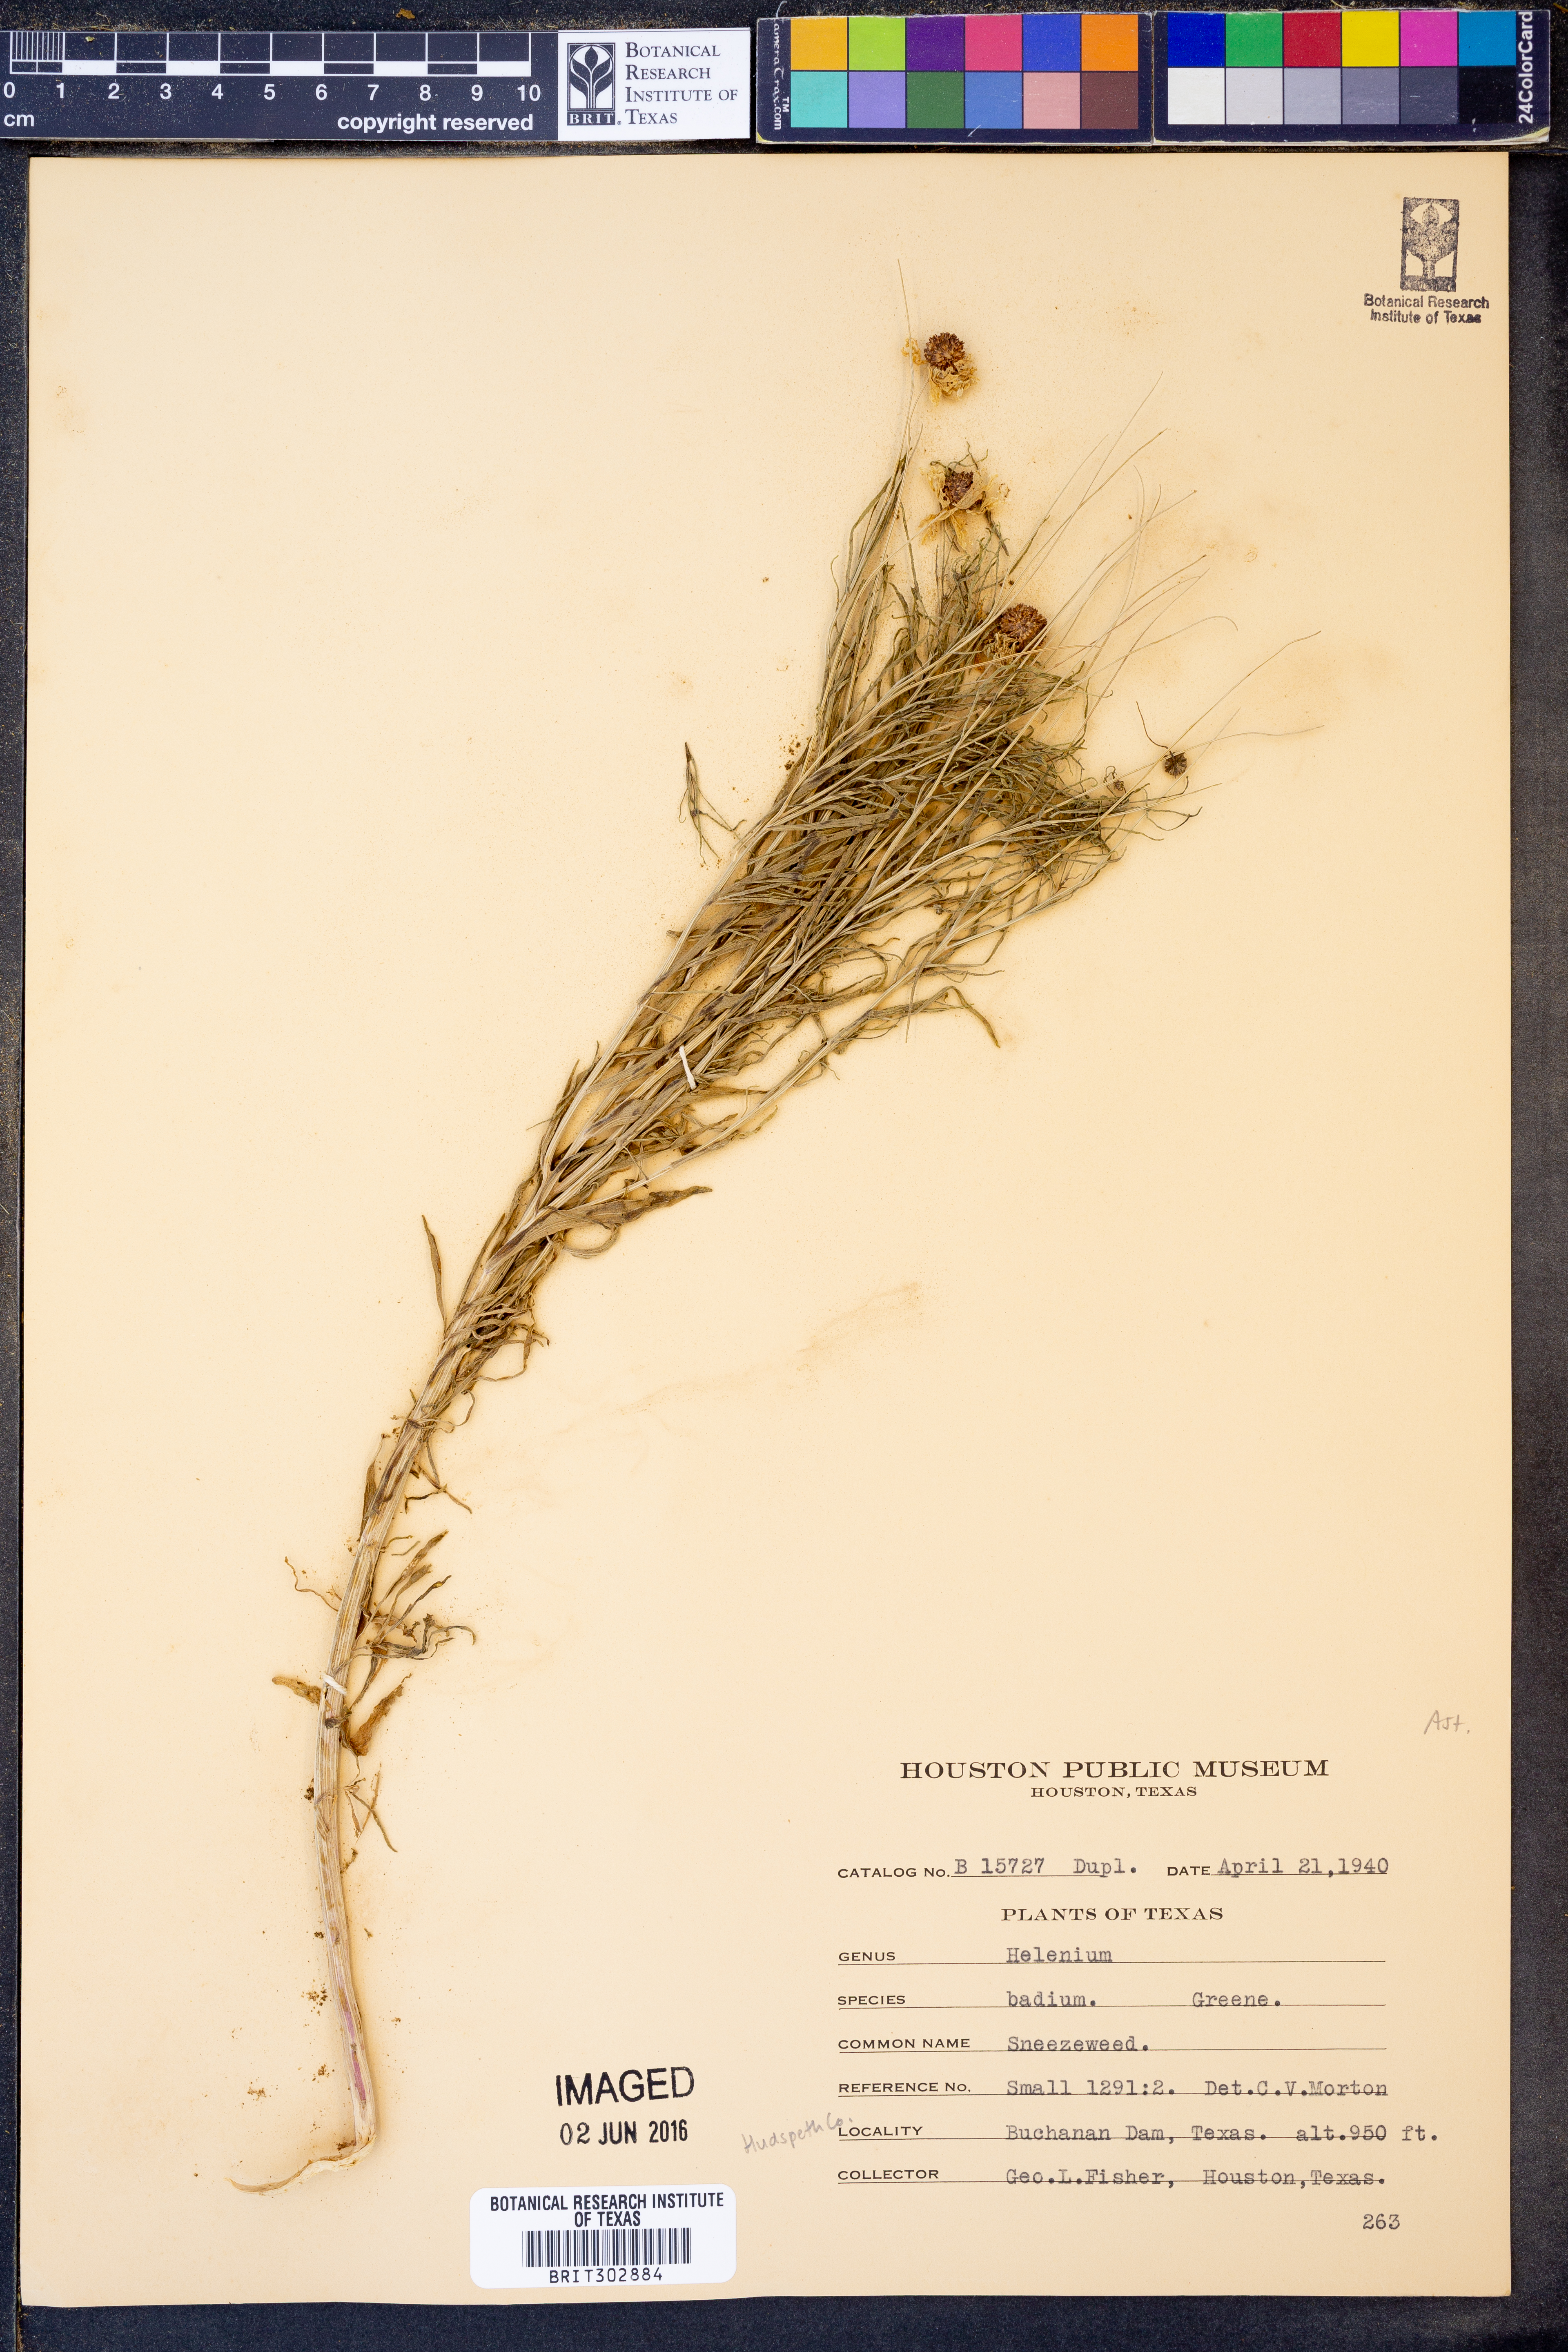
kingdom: Plantae
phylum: Tracheophyta
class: Magnoliopsida
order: Asterales
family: Asteraceae
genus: Helenium
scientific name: Helenium amarum
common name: Bitter sneezeweed
